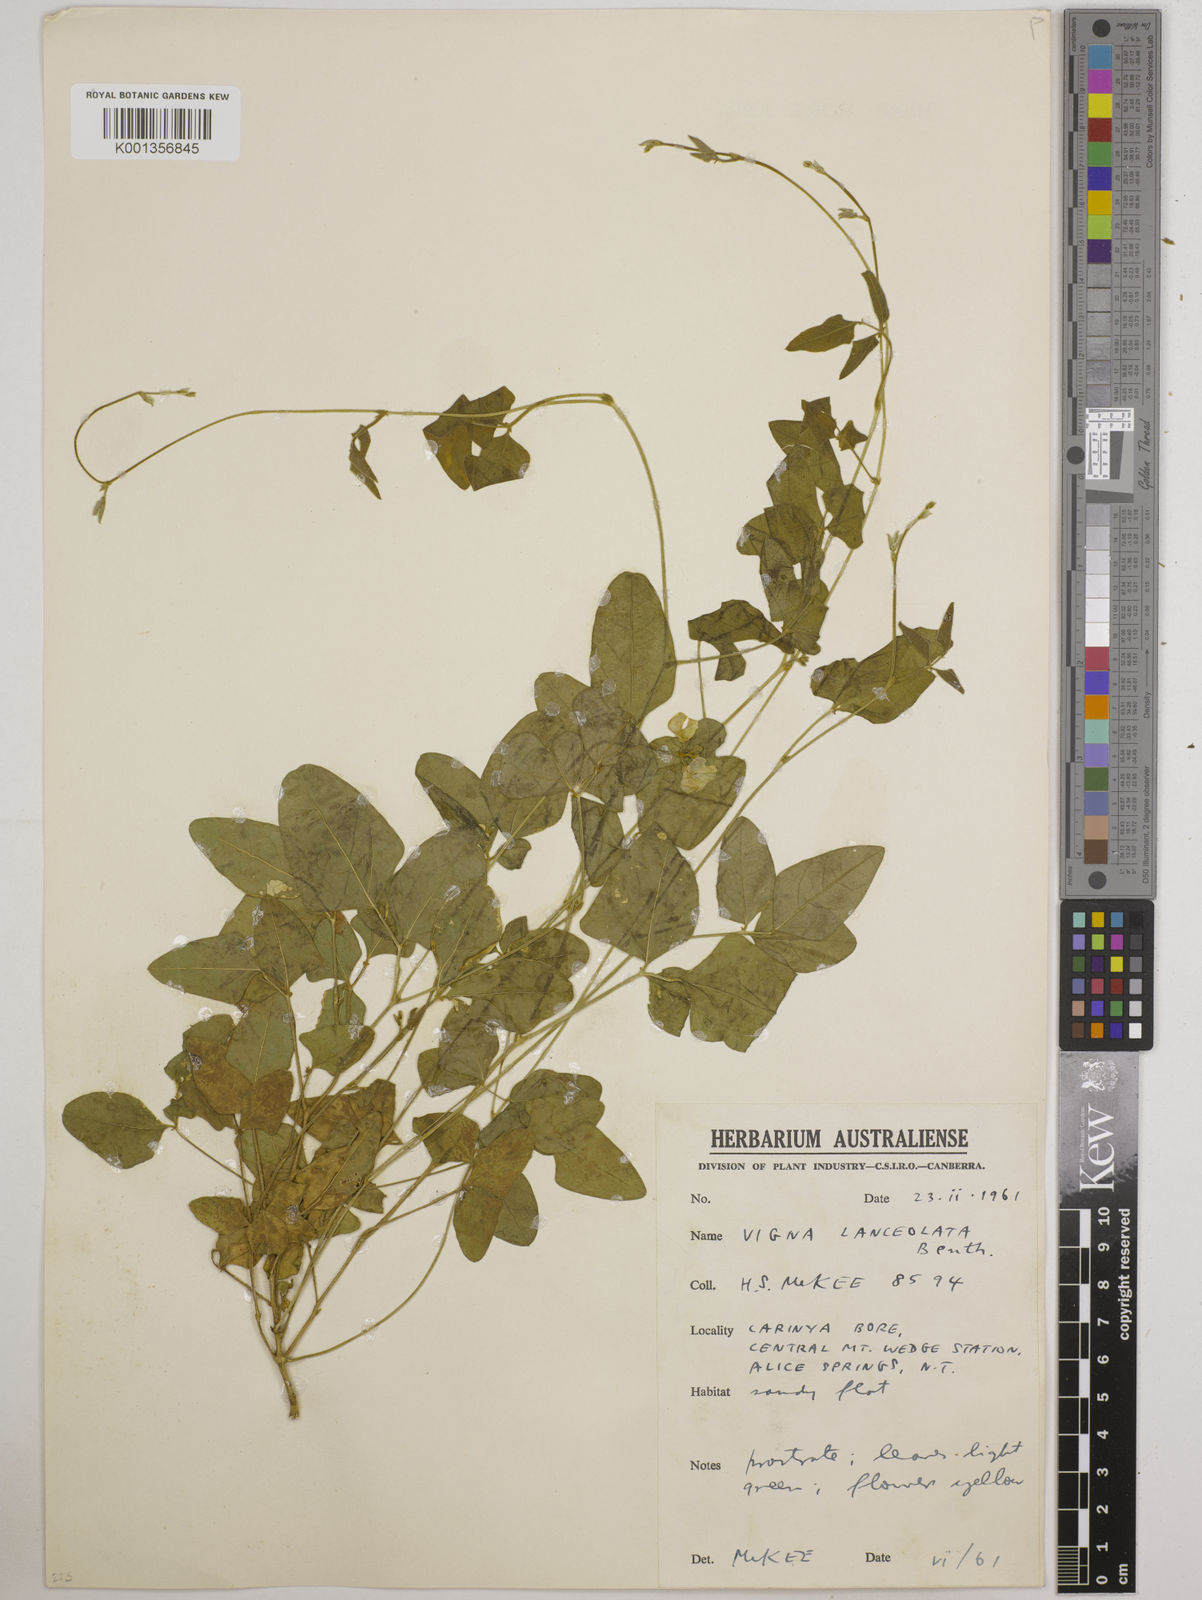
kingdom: Plantae
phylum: Tracheophyta
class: Magnoliopsida
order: Fabales
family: Fabaceae
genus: Vigna
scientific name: Vigna lanceolata
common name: Maloga-bean
